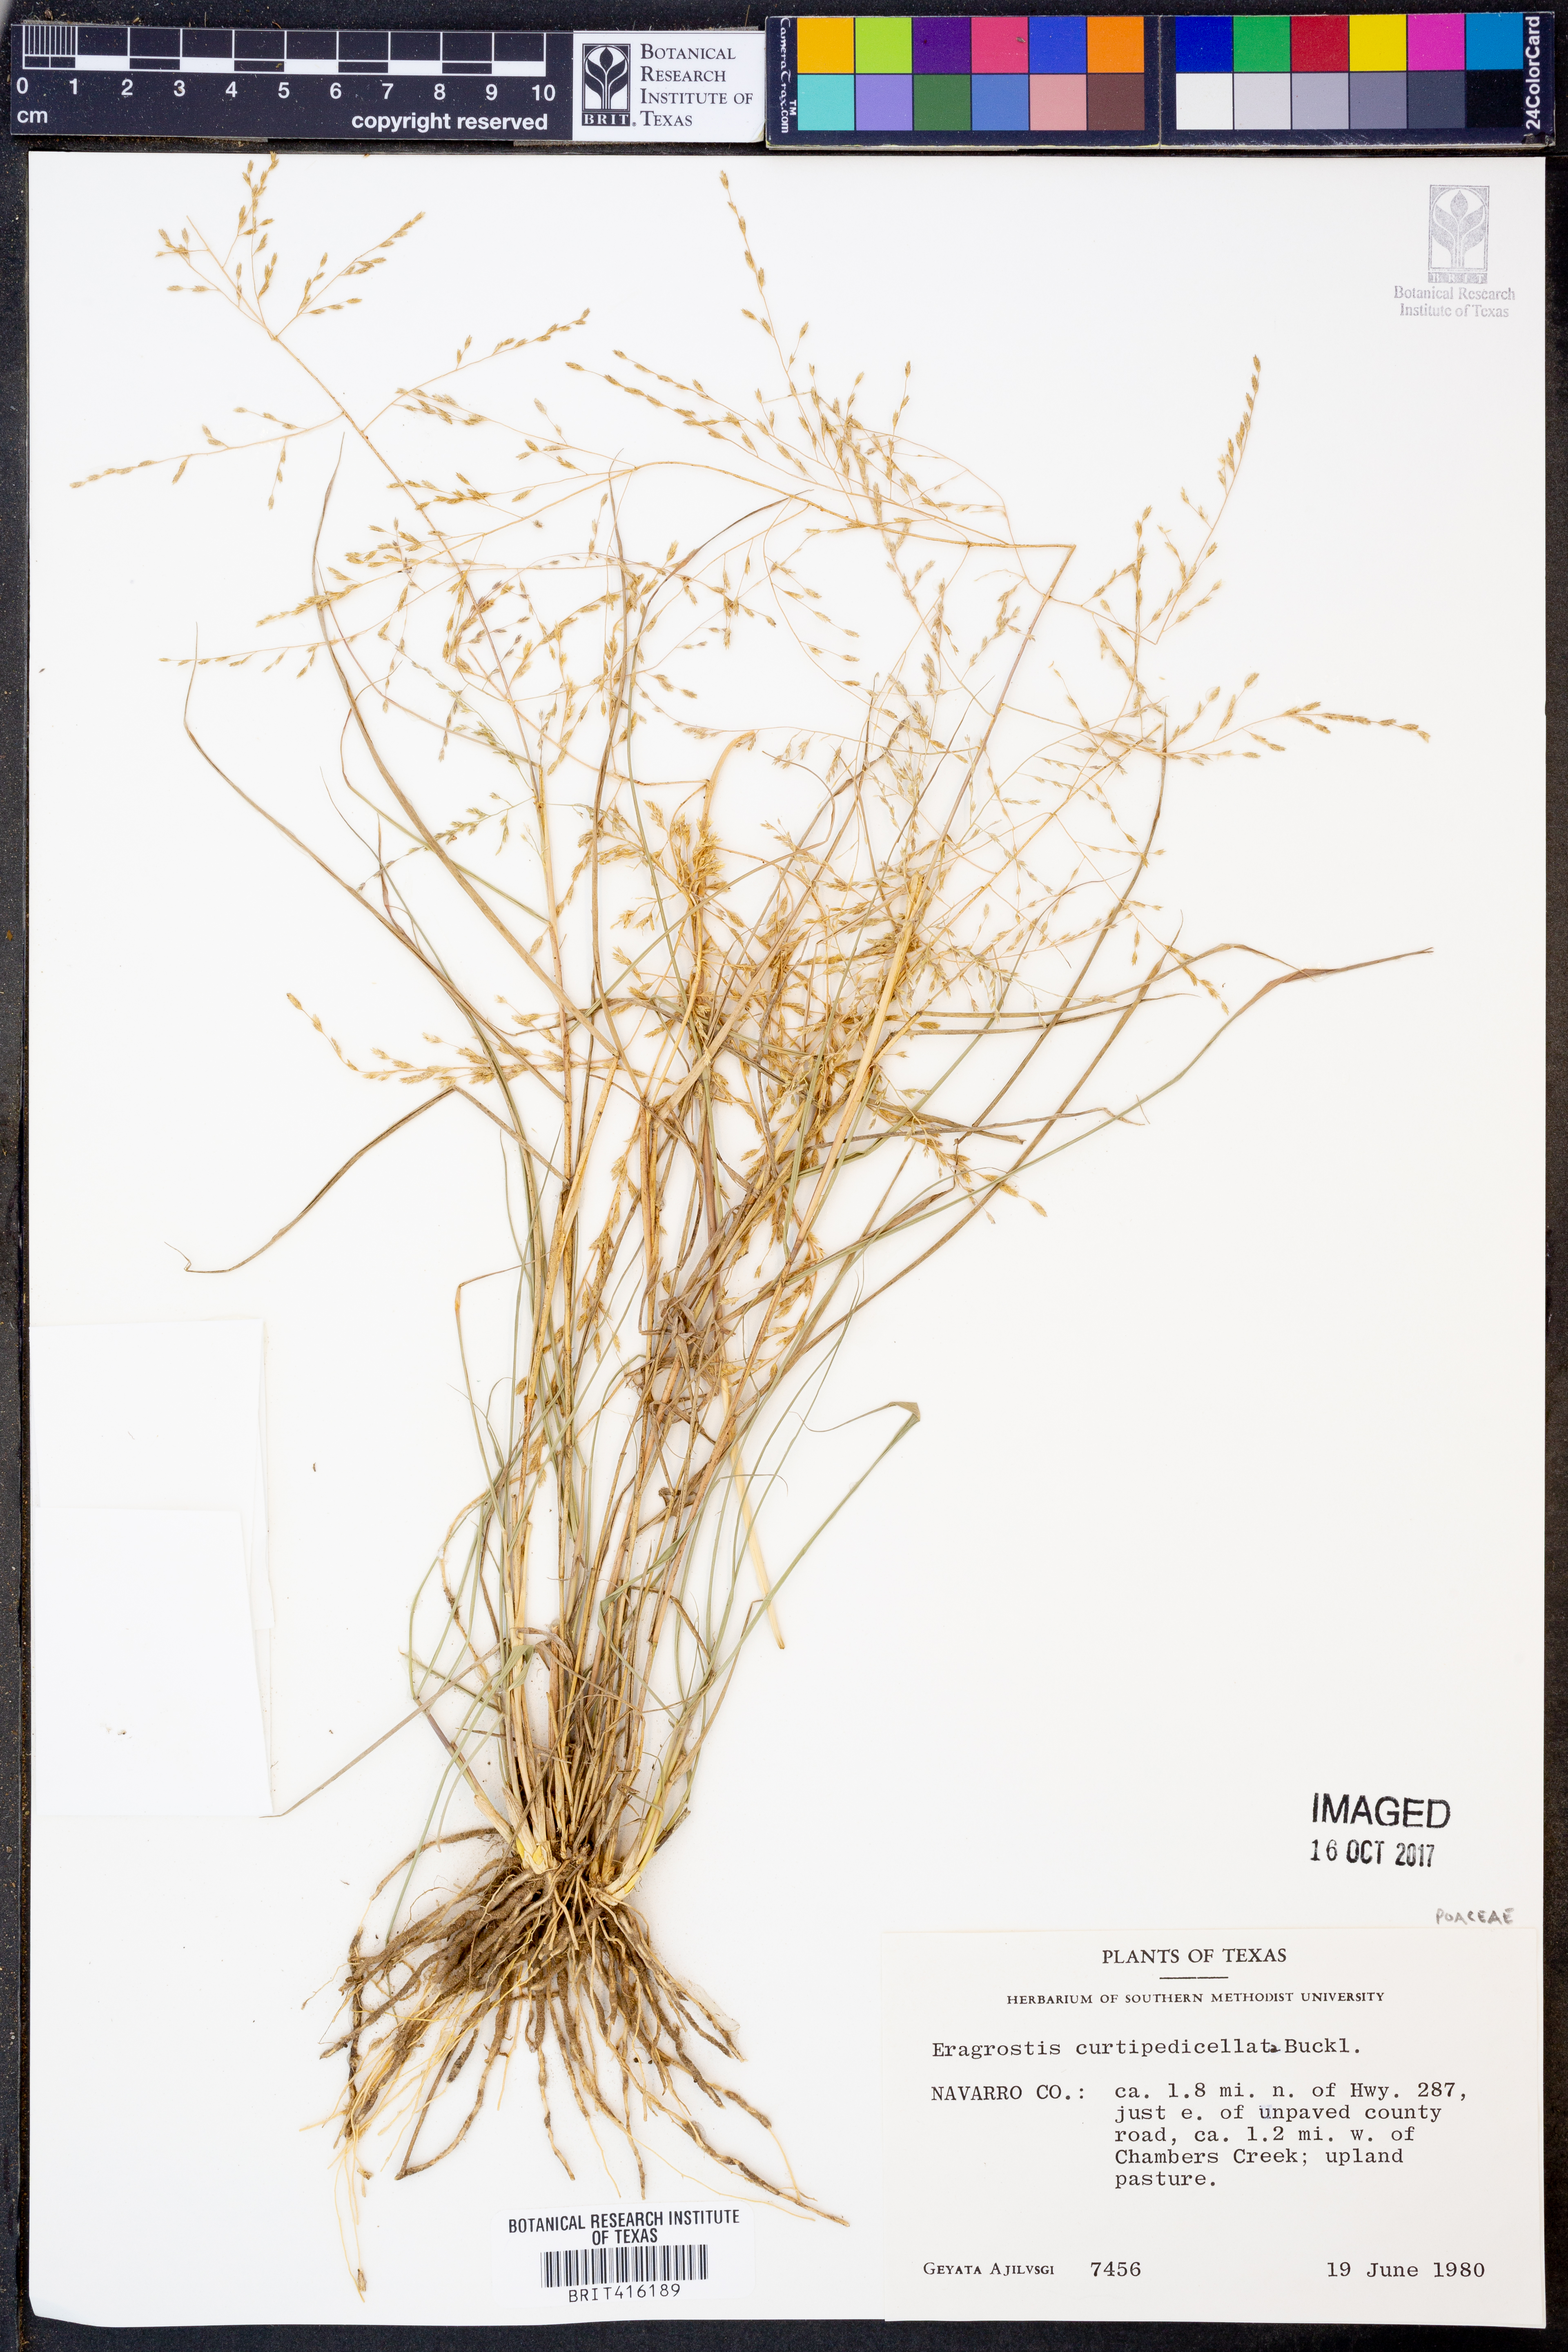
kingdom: Plantae
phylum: Tracheophyta
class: Liliopsida
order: Poales
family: Poaceae
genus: Eragrostis
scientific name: Eragrostis curtipedicellata
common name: Gummy love grass
